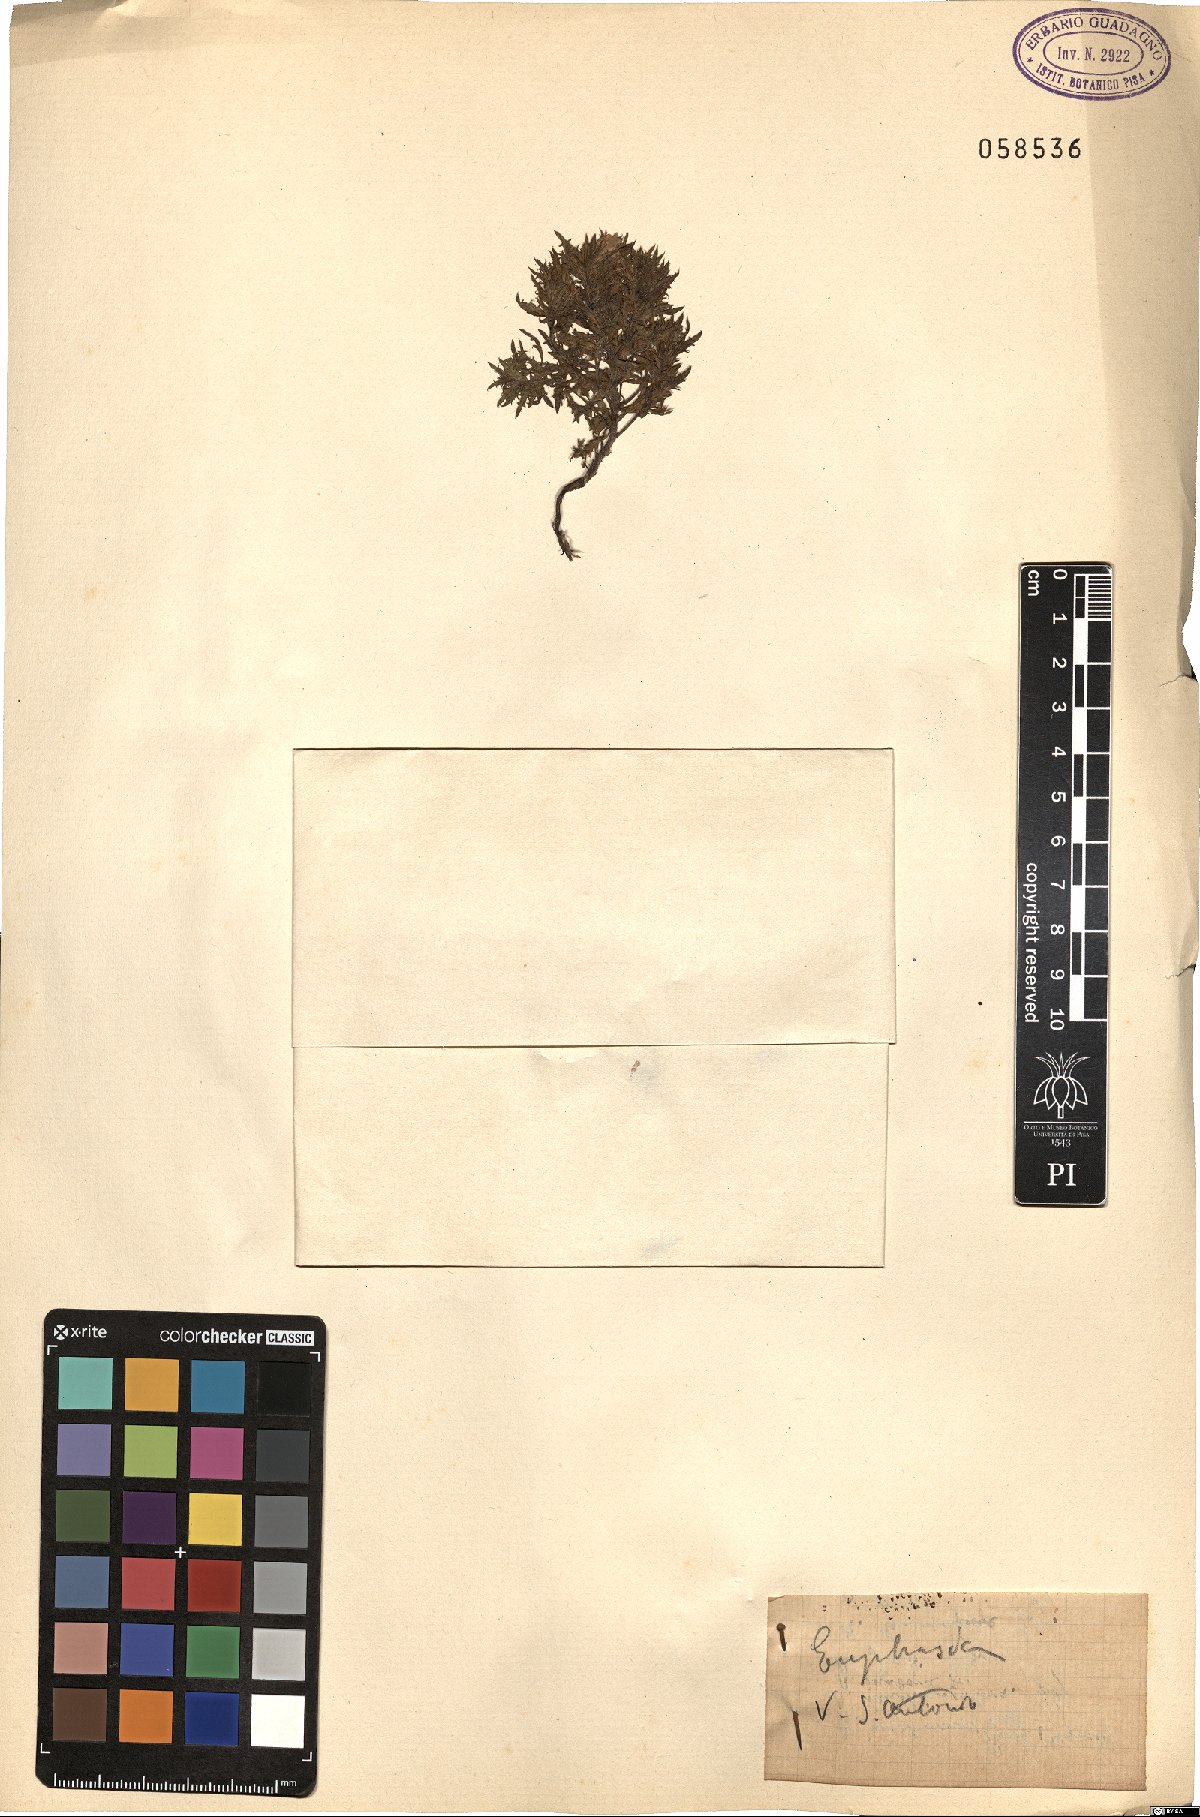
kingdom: Plantae
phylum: Tracheophyta
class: Magnoliopsida
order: Lamiales
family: Orobanchaceae
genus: Euphrasia
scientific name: Euphrasia
